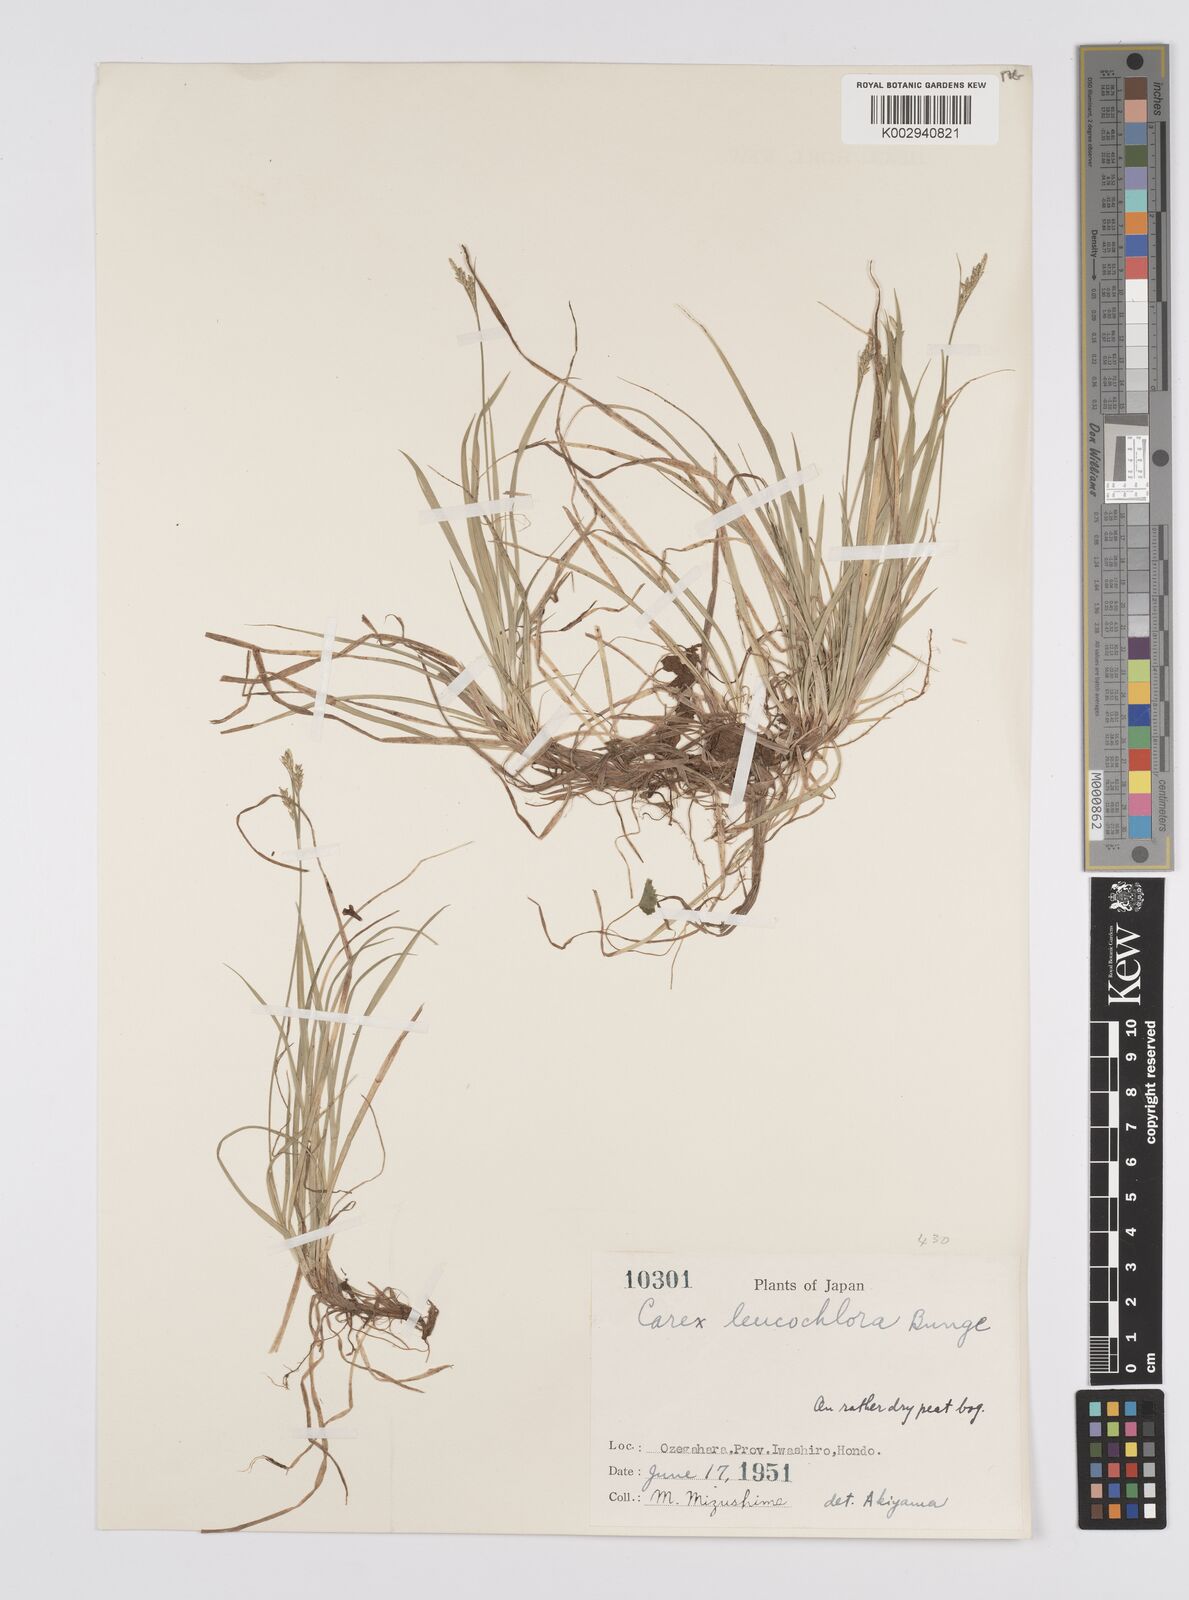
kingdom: Plantae
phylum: Tracheophyta
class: Liliopsida
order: Poales
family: Cyperaceae
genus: Carex
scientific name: Carex breviculmis
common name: Asian shortstem sedge
